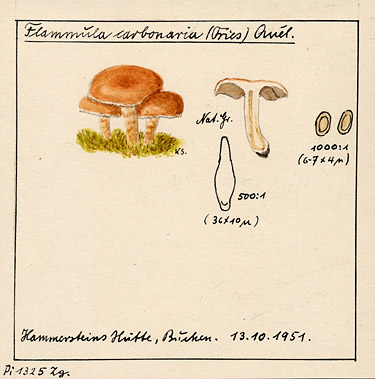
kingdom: Fungi
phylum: Basidiomycota
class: Agaricomycetes
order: Agaricales
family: Strophariaceae
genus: Pholiota
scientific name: Pholiota carbonaria
